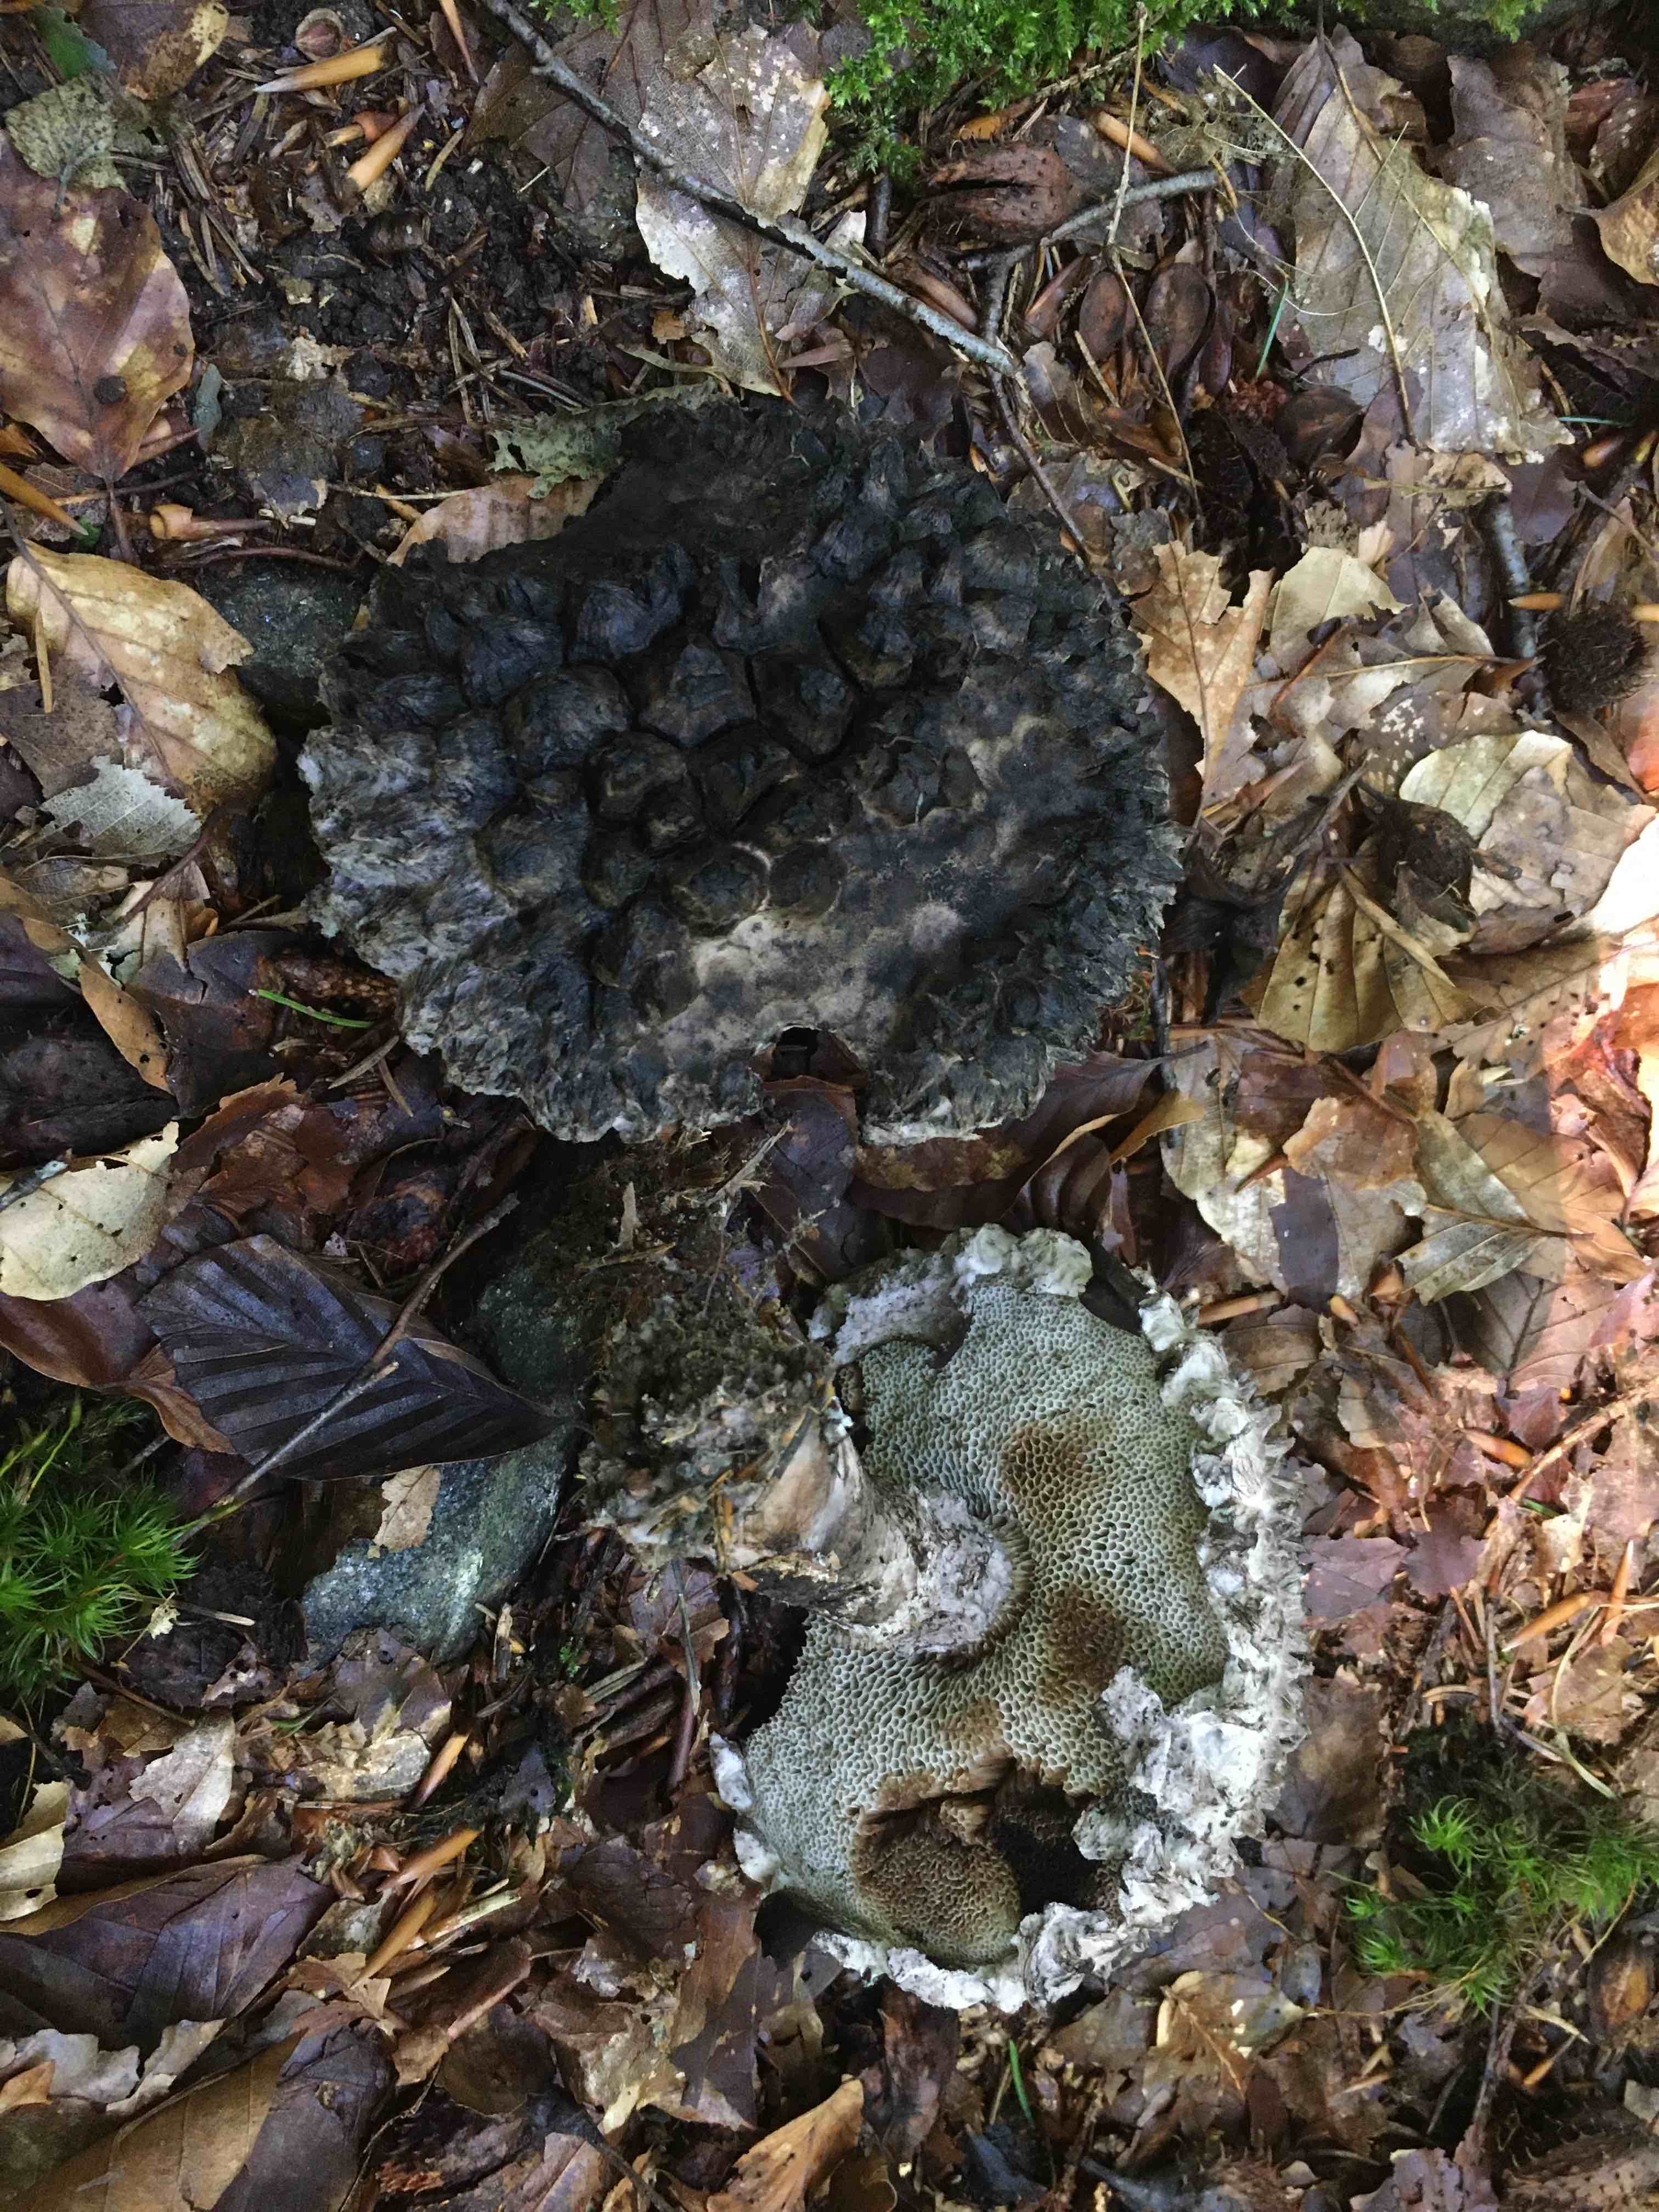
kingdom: Fungi
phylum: Basidiomycota
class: Agaricomycetes
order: Boletales
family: Boletaceae
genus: Strobilomyces
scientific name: Strobilomyces strobilaceus
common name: koglerørhat
